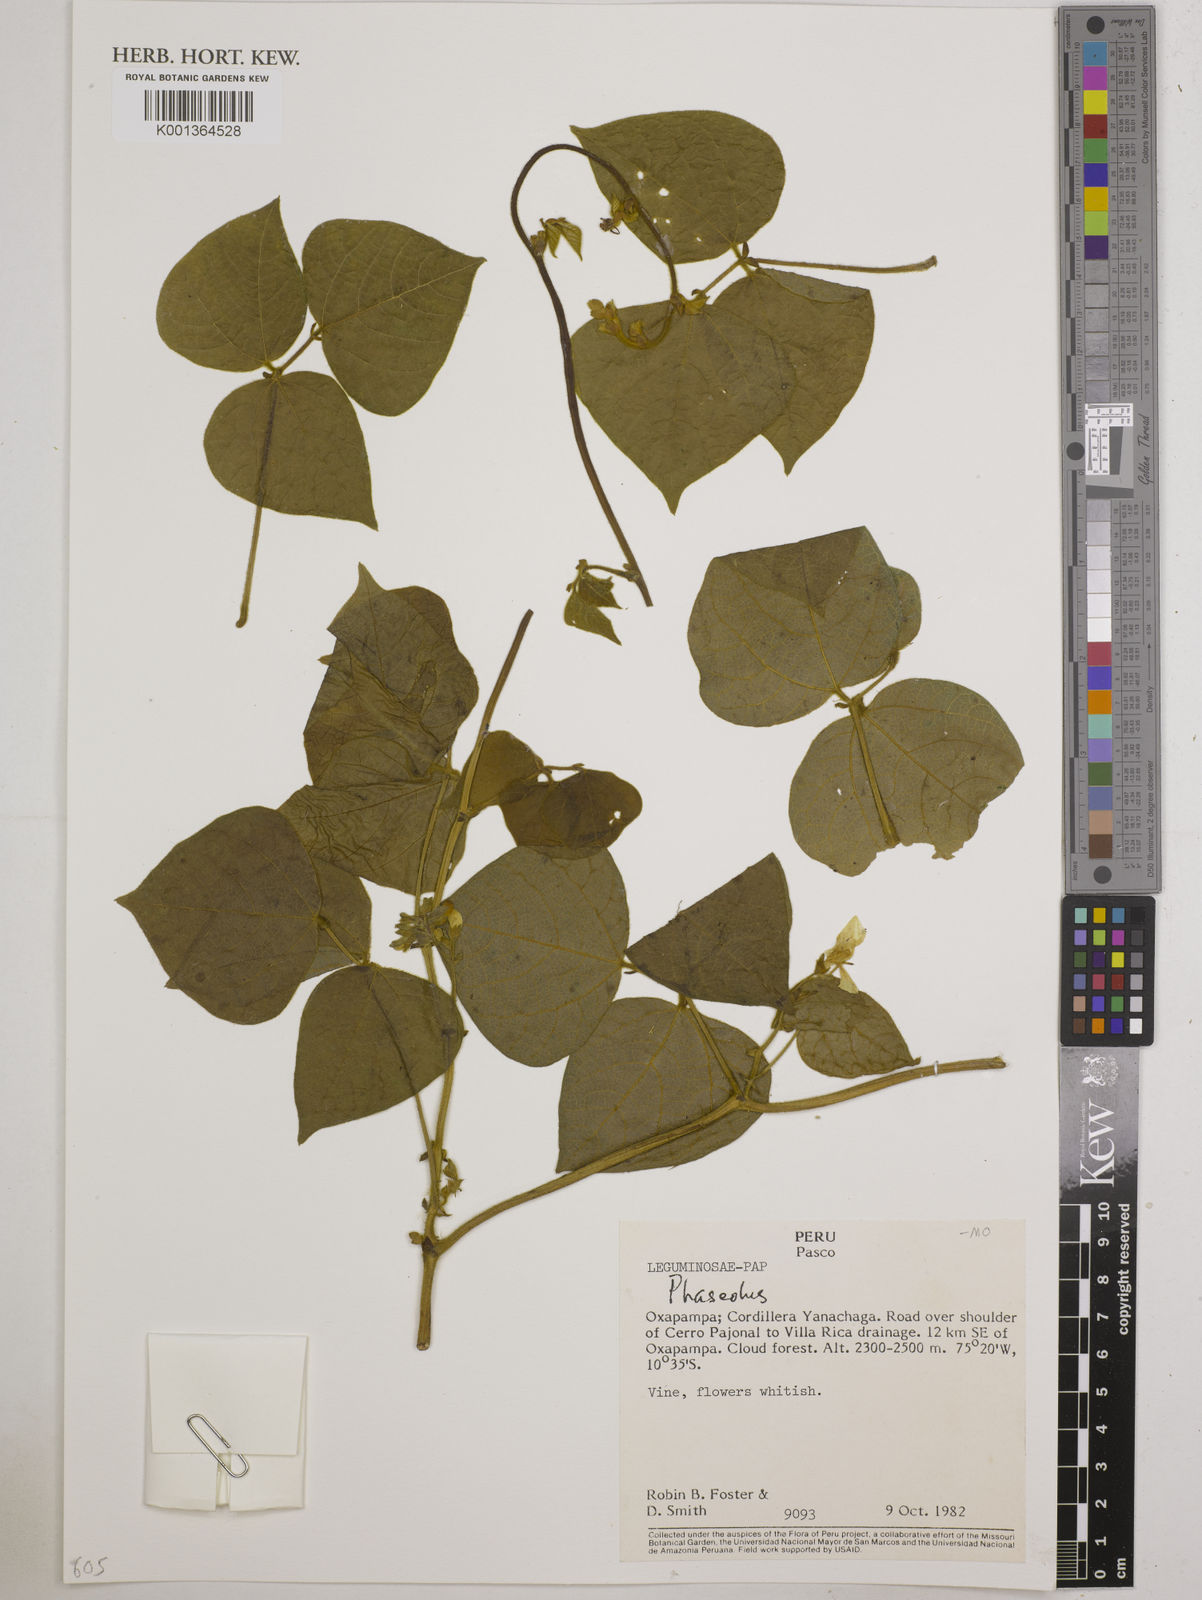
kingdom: Plantae
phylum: Tracheophyta
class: Magnoliopsida
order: Fabales
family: Fabaceae
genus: Phaseolus
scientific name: Phaseolus
